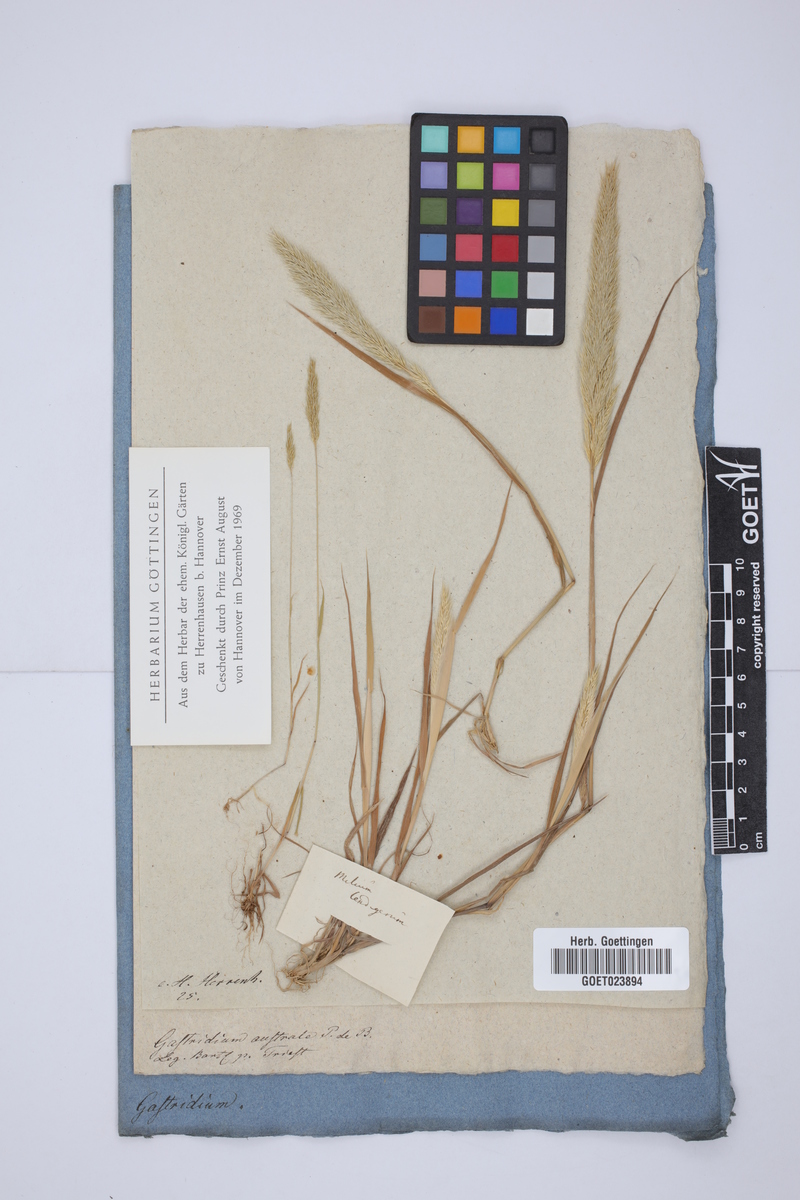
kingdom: Plantae
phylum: Tracheophyta
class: Liliopsida
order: Poales
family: Poaceae
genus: Gastridium
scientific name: Gastridium ventricosum
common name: Nit-grass
